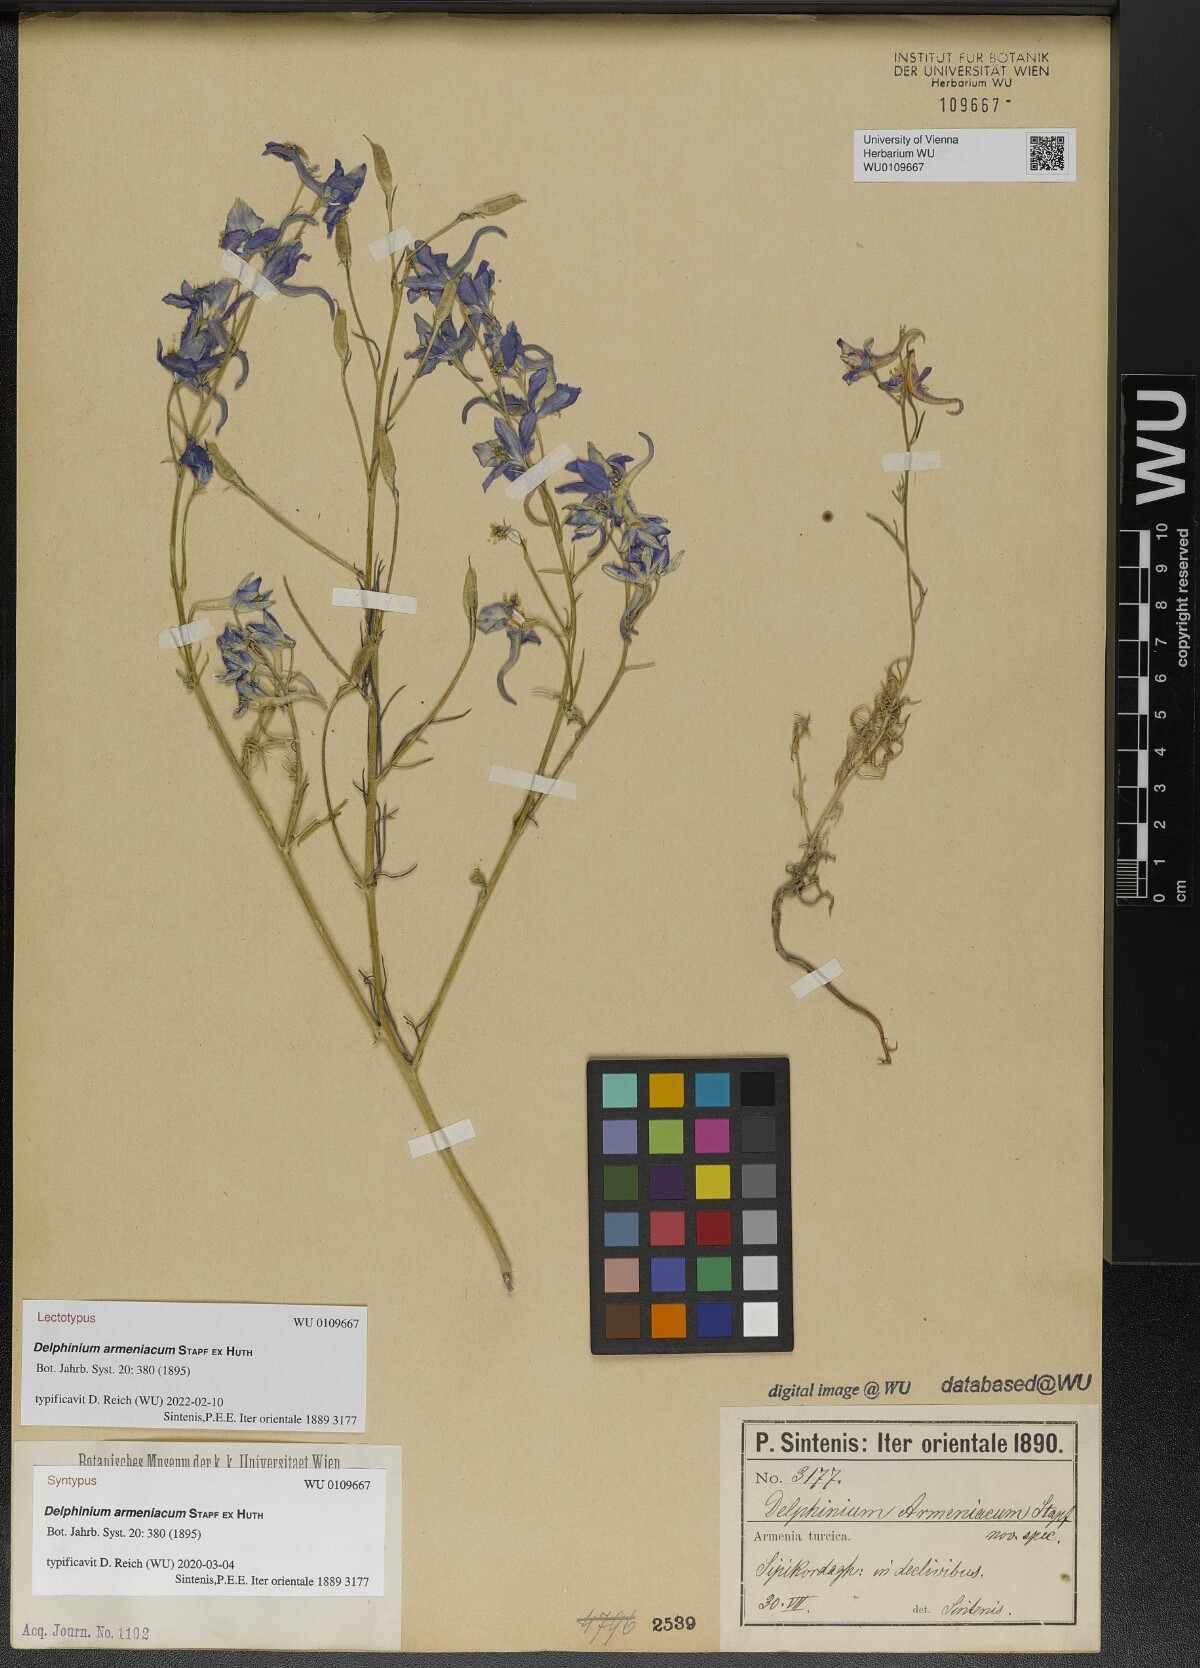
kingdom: Plantae
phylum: Tracheophyta
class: Magnoliopsida
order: Ranunculales
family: Ranunculaceae
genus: Delphinium
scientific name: Delphinium armeniacum
